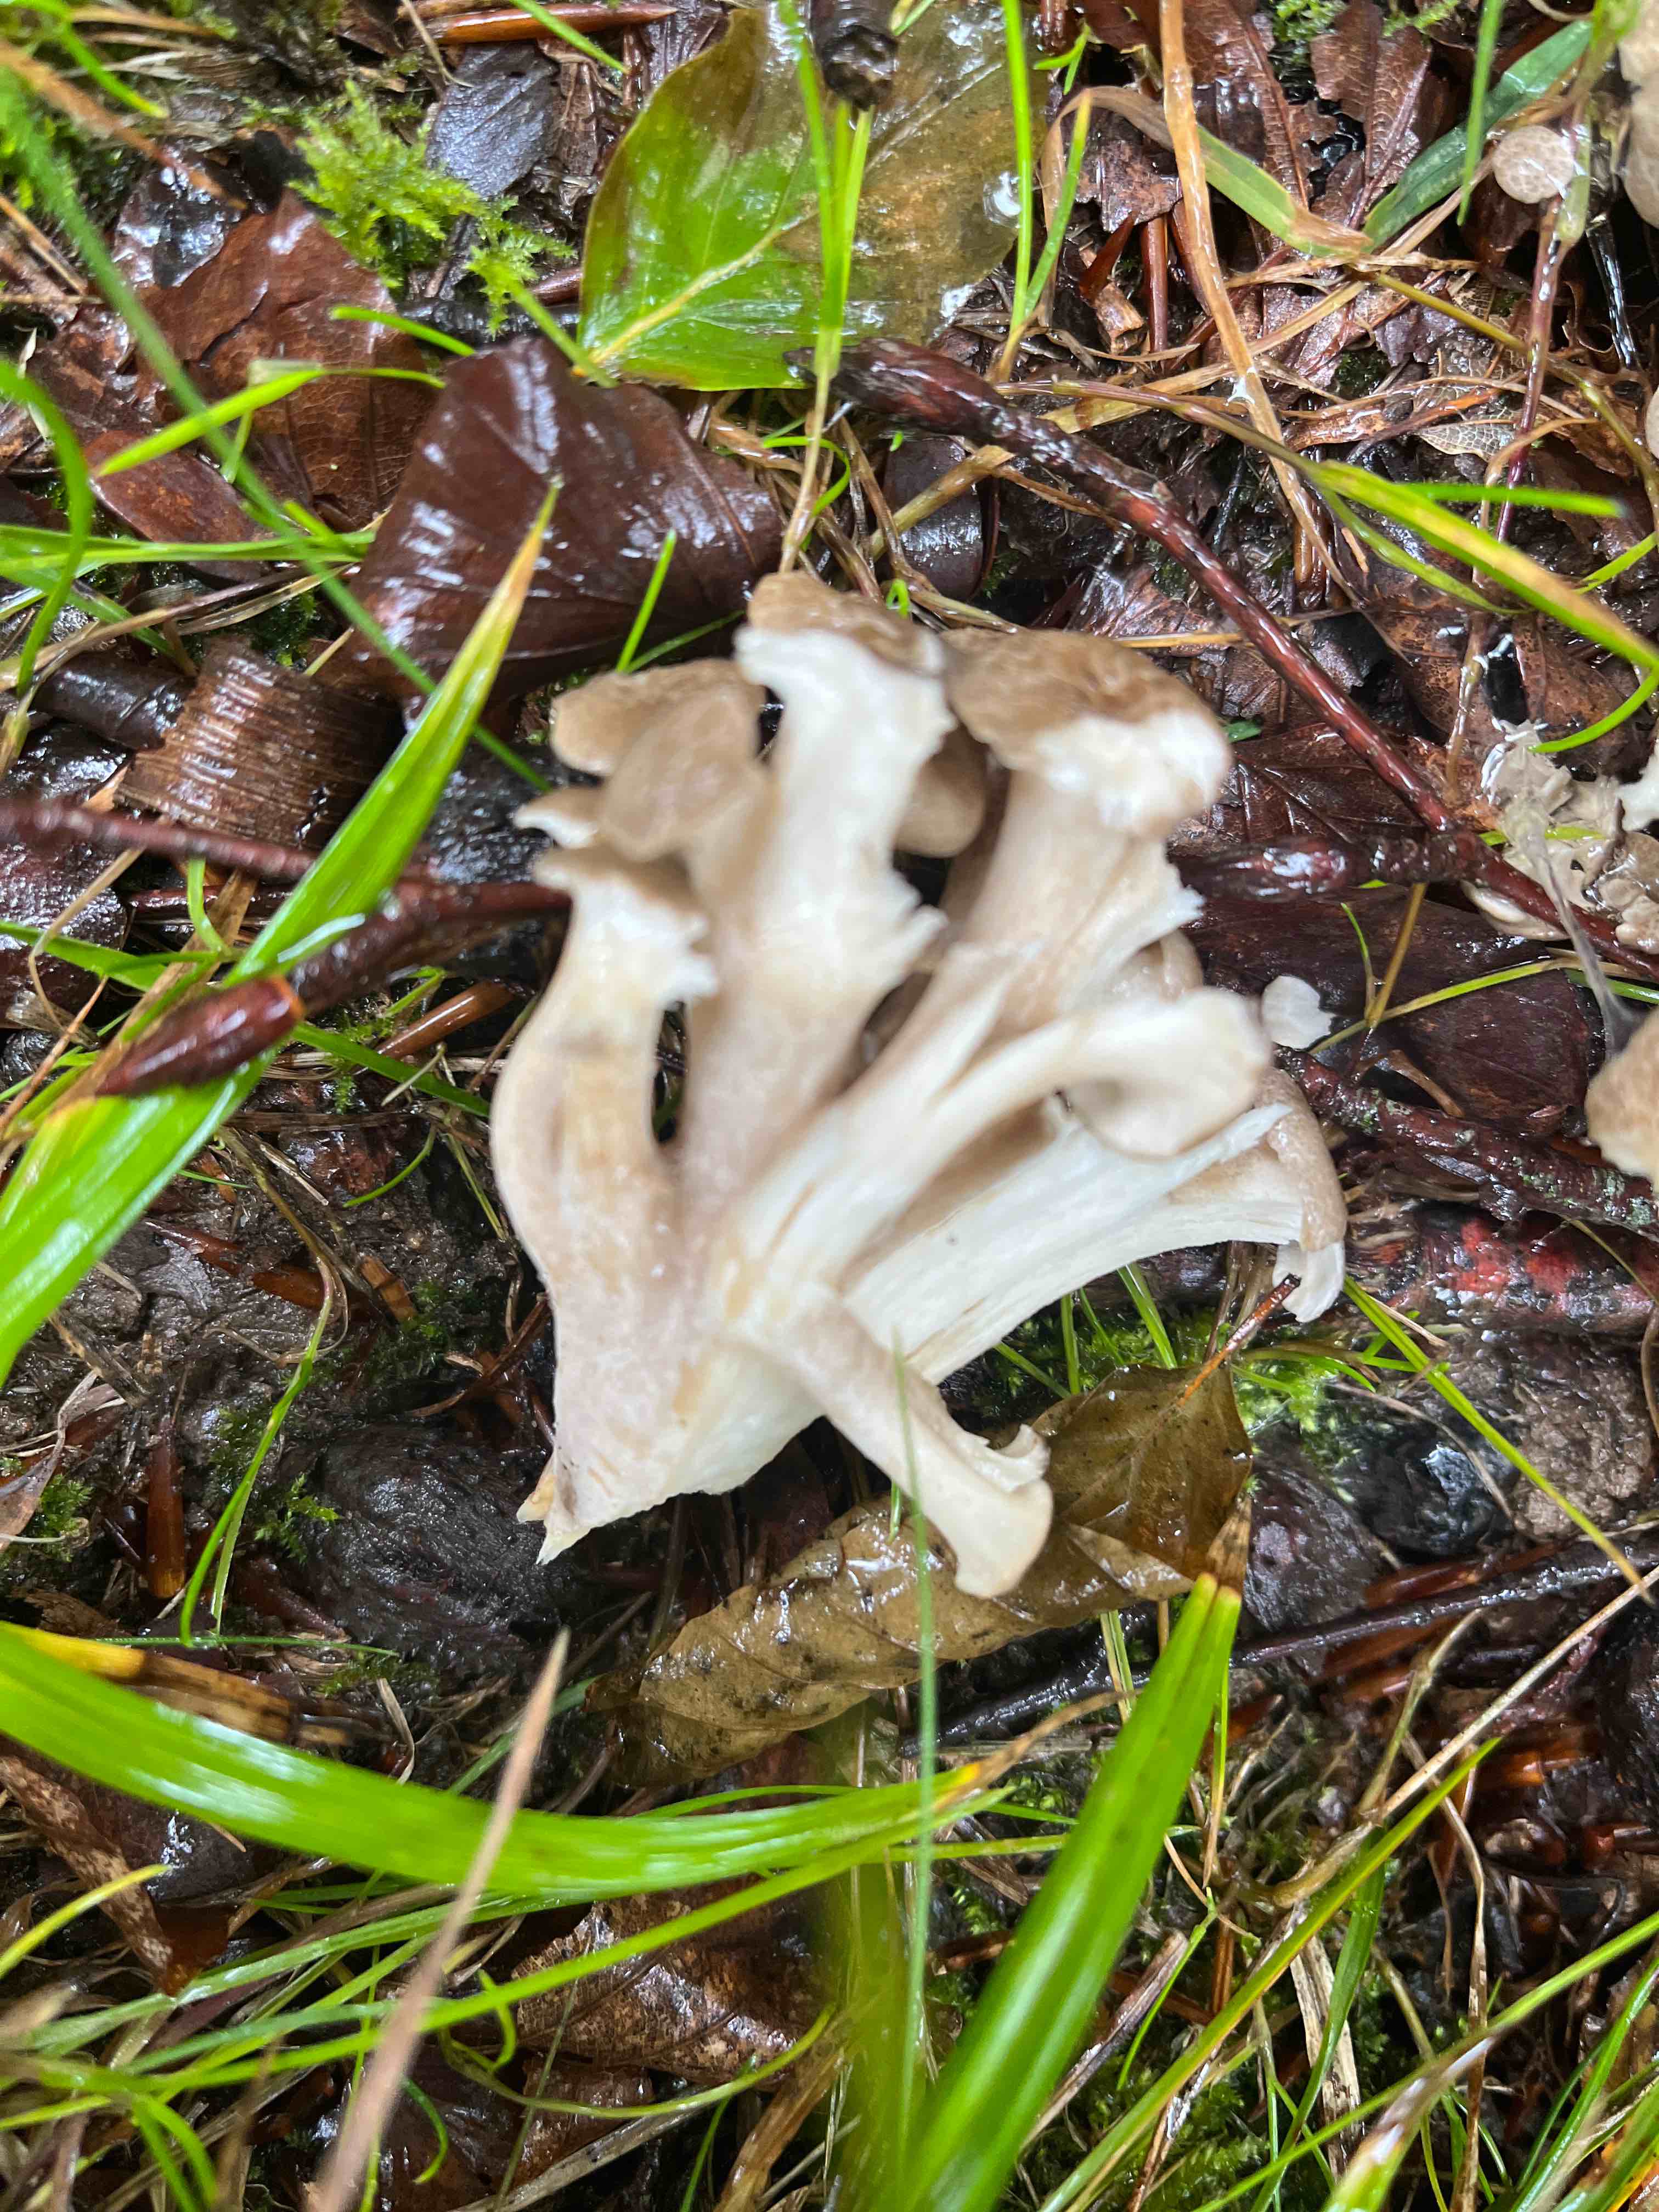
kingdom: Fungi
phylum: Basidiomycota
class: Agaricomycetes
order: Polyporales
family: Polyporaceae
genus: Polyporus
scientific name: Polyporus umbellatus
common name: skærmformet stilkporesvamp
